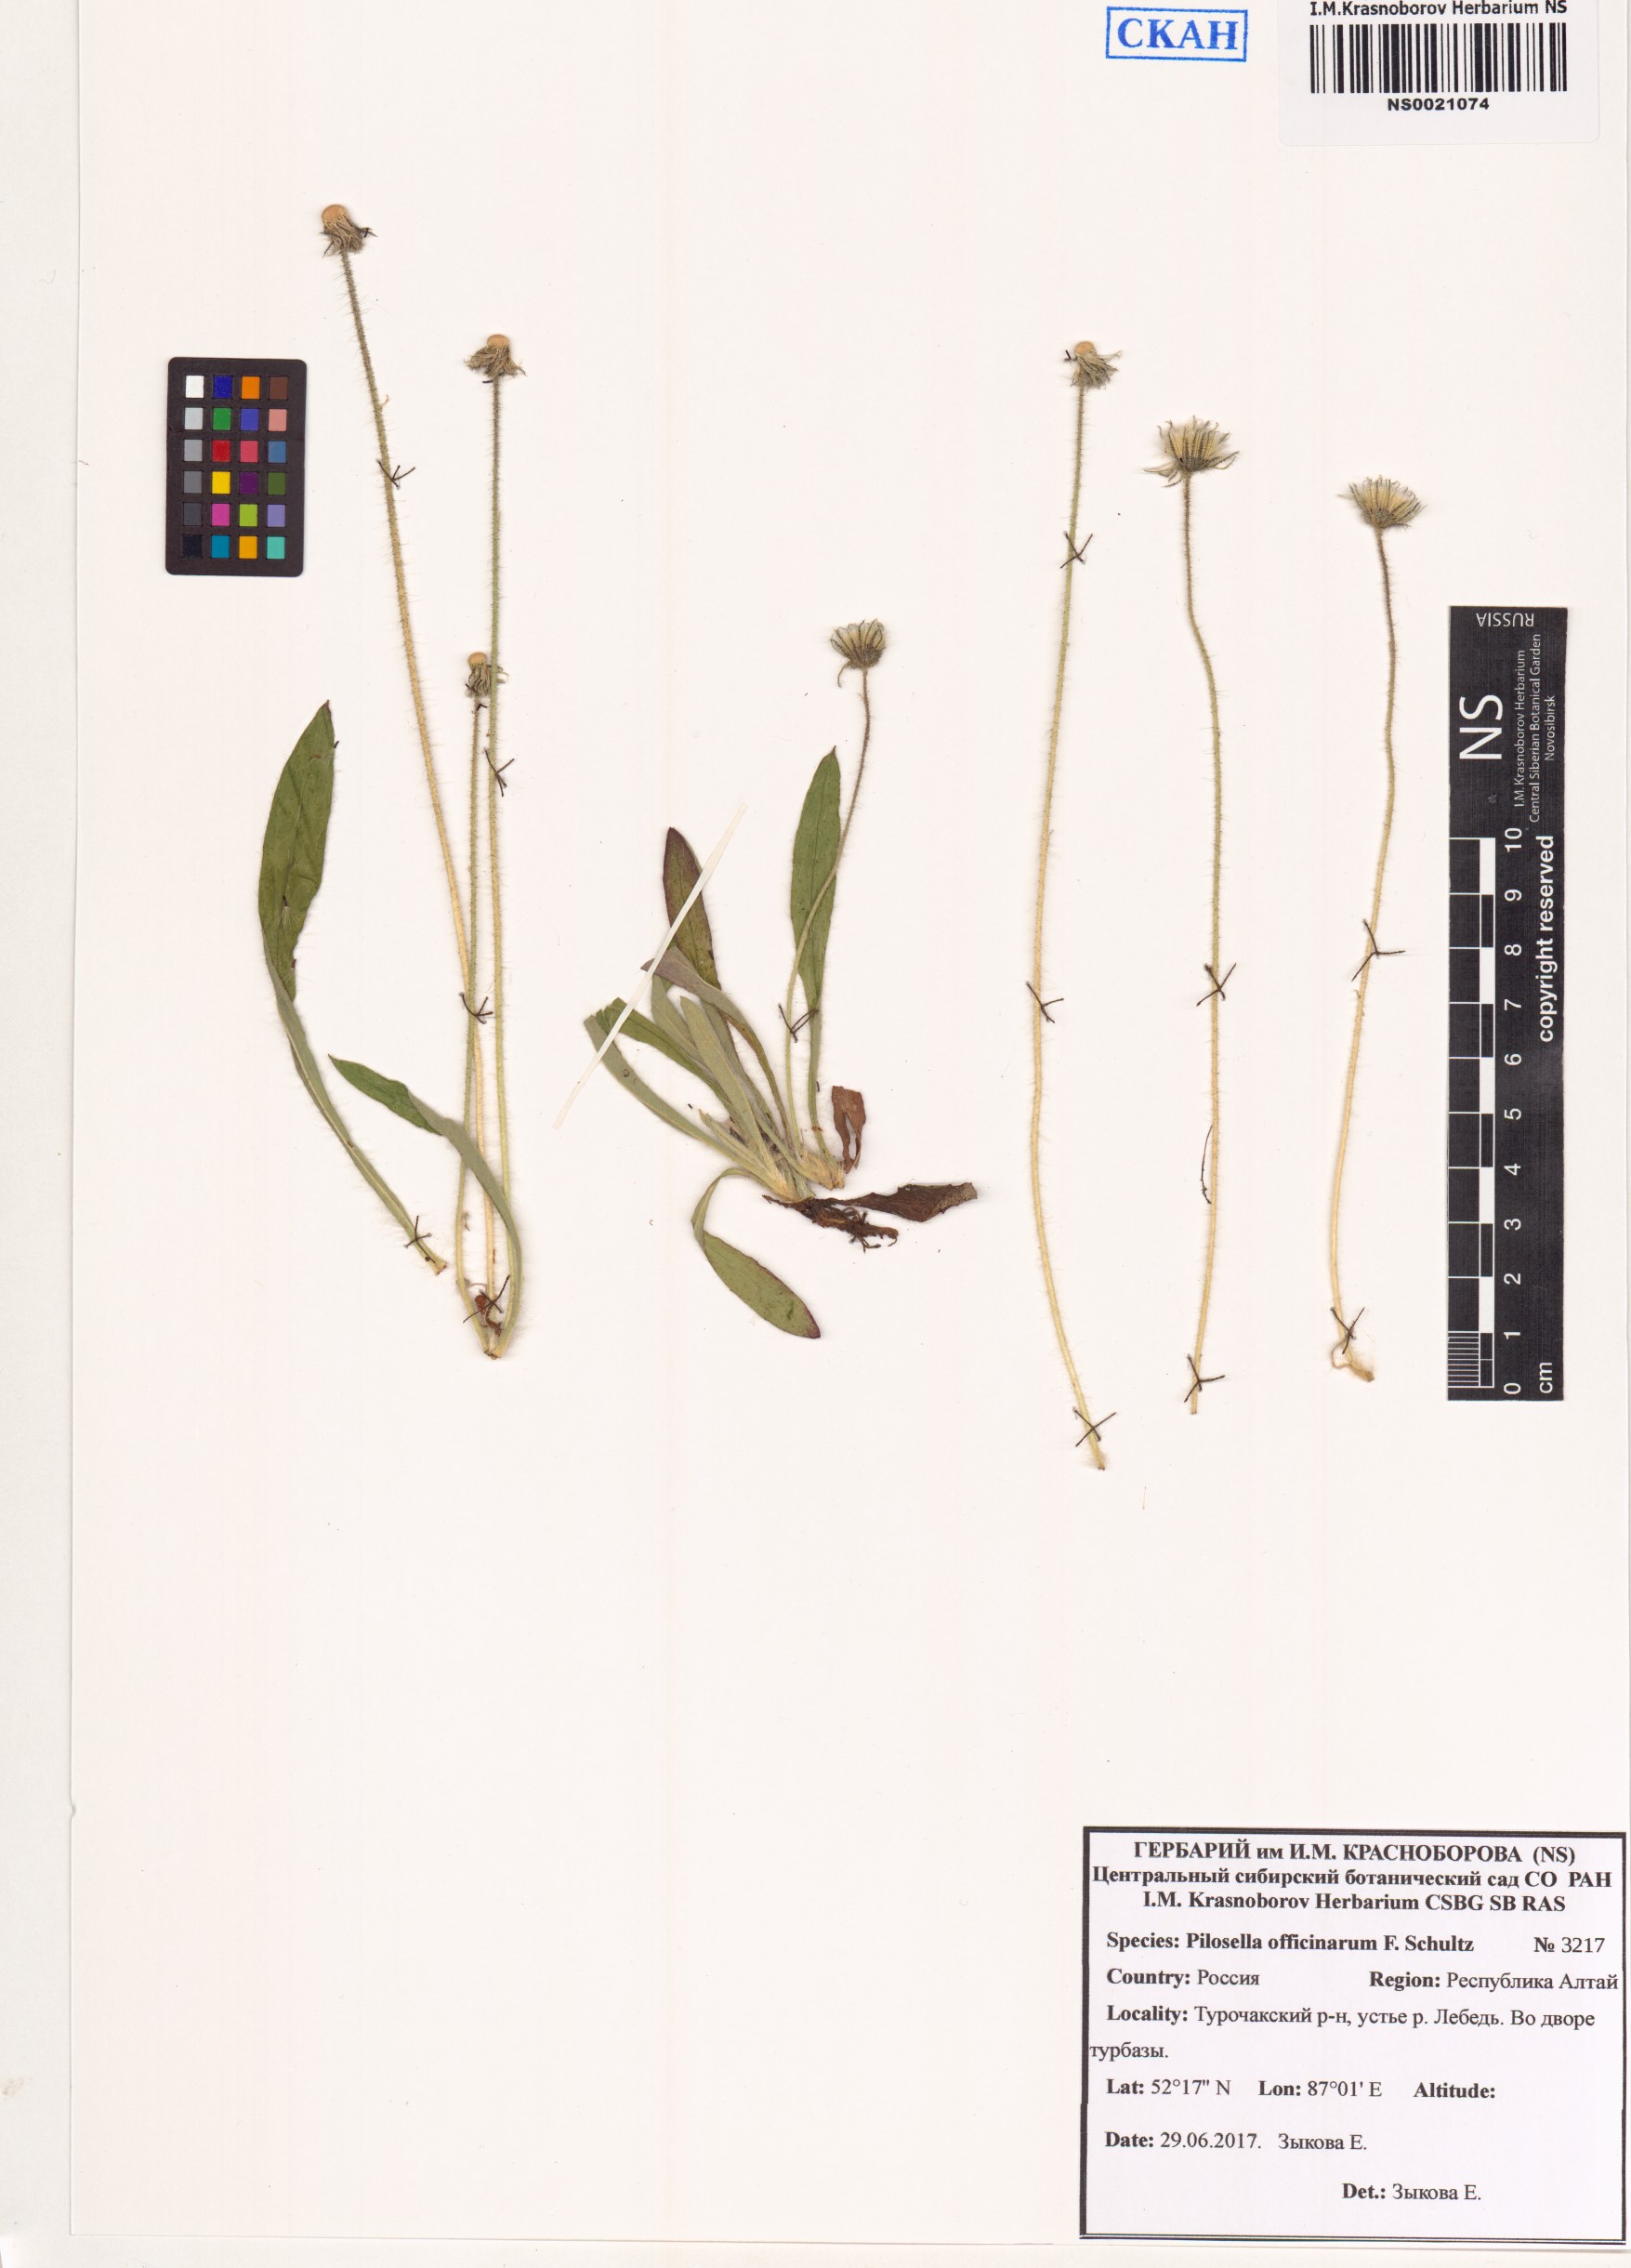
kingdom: Plantae
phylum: Tracheophyta
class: Magnoliopsida
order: Asterales
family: Asteraceae
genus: Pilosella
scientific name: Pilosella officinarum
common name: Mouse-ear hawkweed
